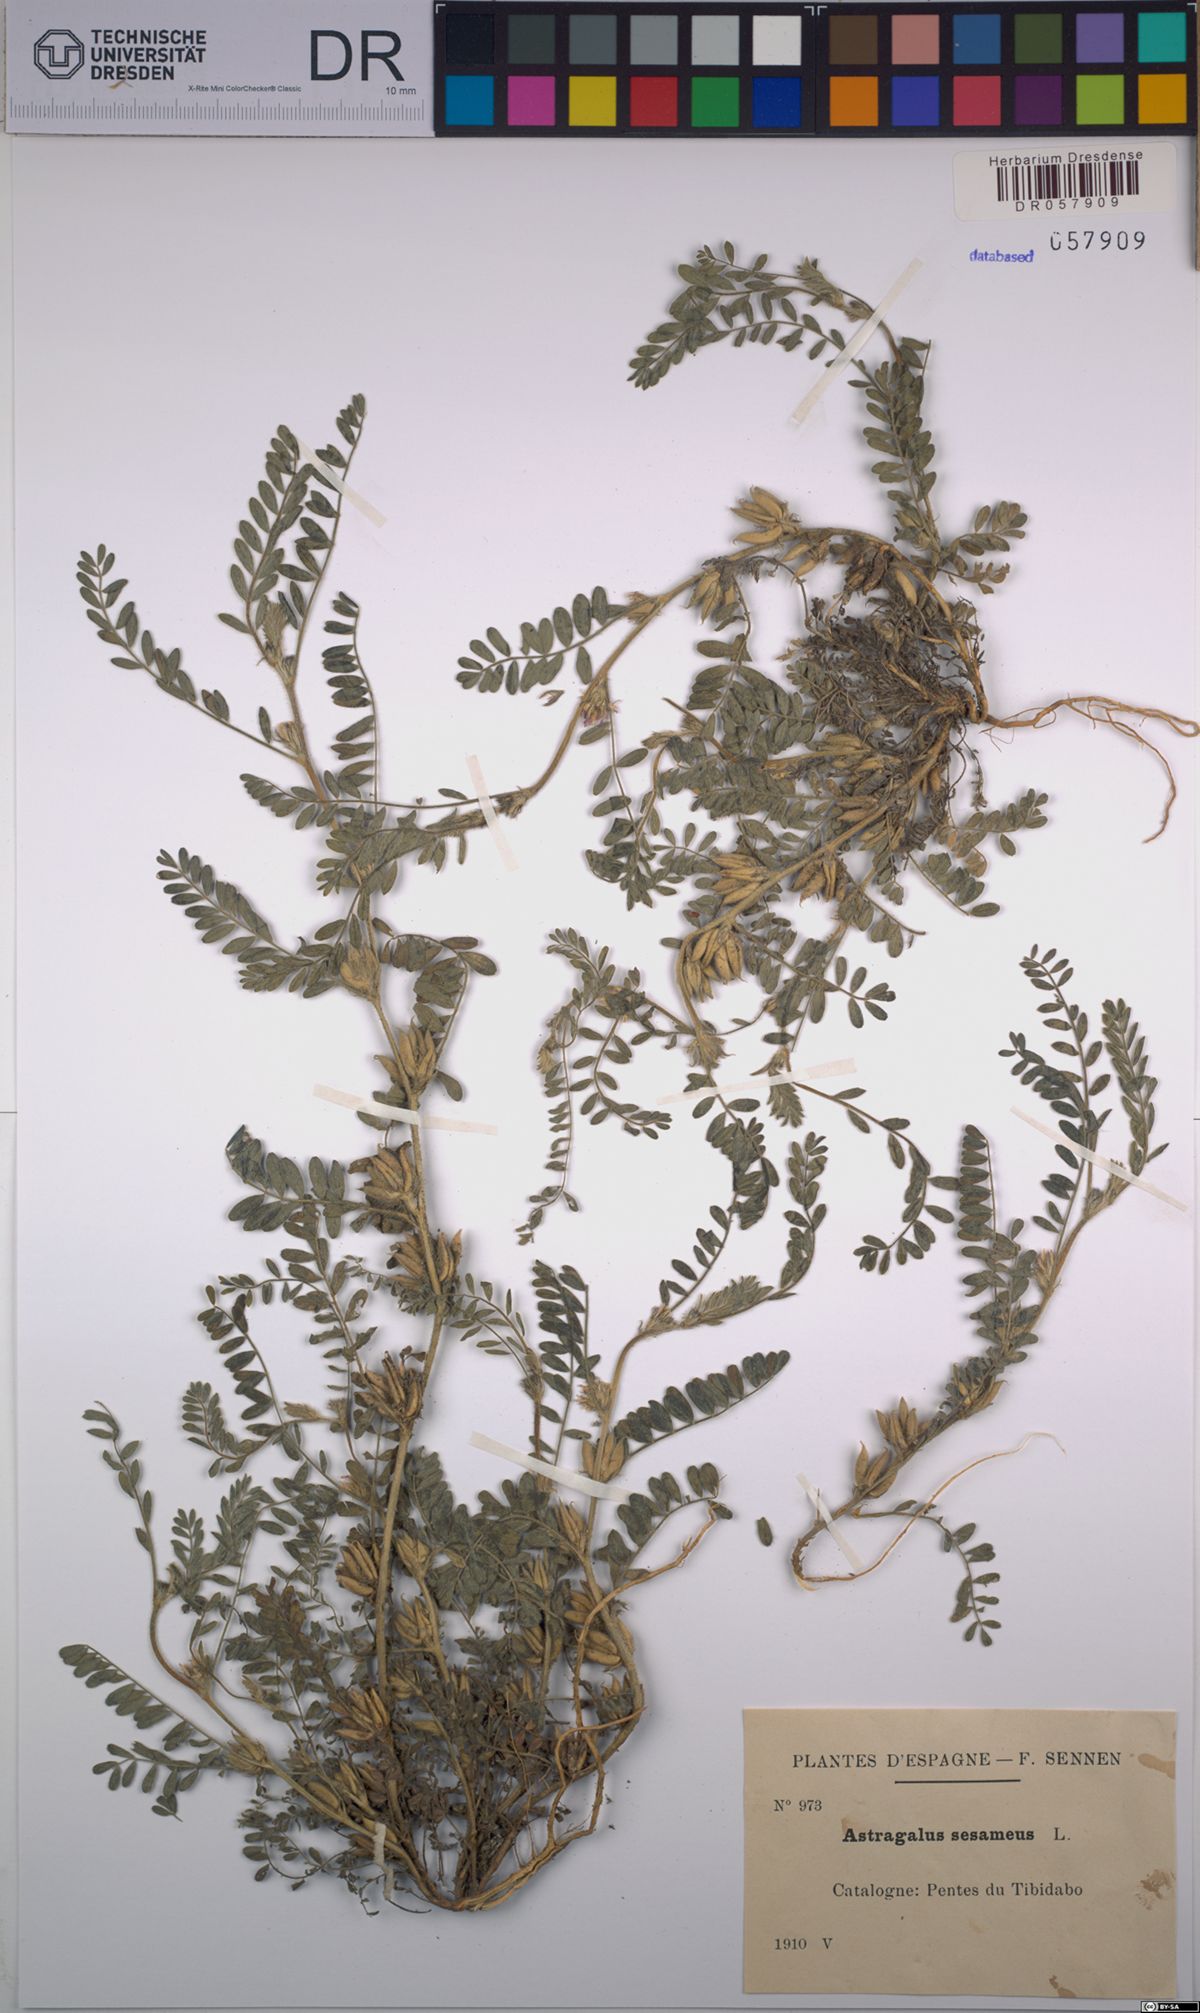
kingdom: Plantae
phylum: Tracheophyta
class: Magnoliopsida
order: Fabales
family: Fabaceae
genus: Astragalus
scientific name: Astragalus sesameus
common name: Purple milk-vetch
